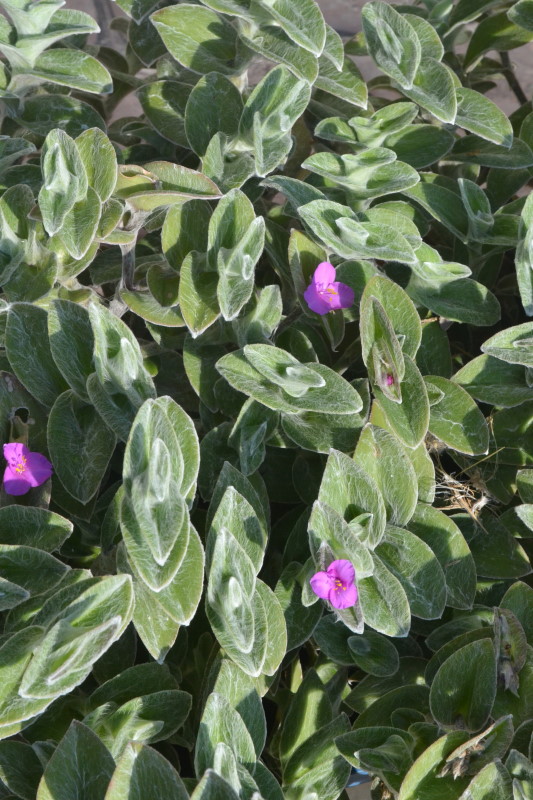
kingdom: Plantae
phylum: Tracheophyta
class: Liliopsida
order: Commelinales
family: Commelinaceae
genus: Tradescantia
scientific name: Tradescantia sillamontana
